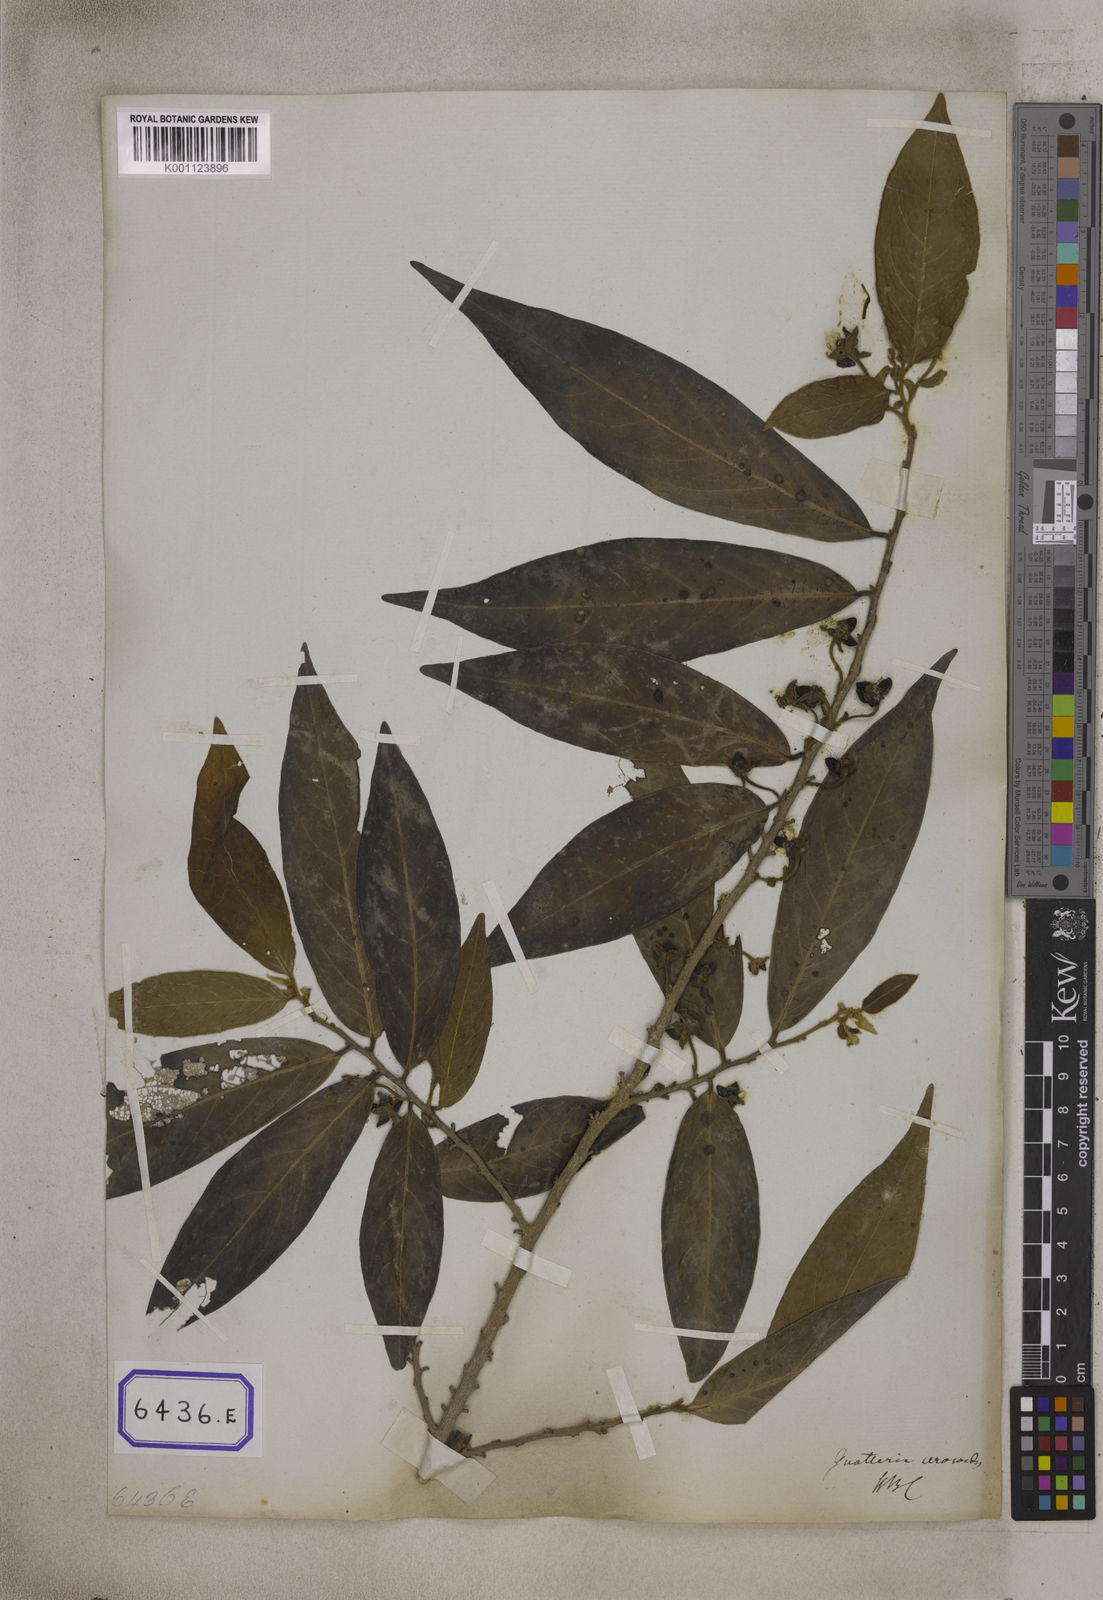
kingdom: Plantae
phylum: Tracheophyta
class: Magnoliopsida
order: Magnoliales
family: Annonaceae
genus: Hubera
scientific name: Hubera cerasoides
